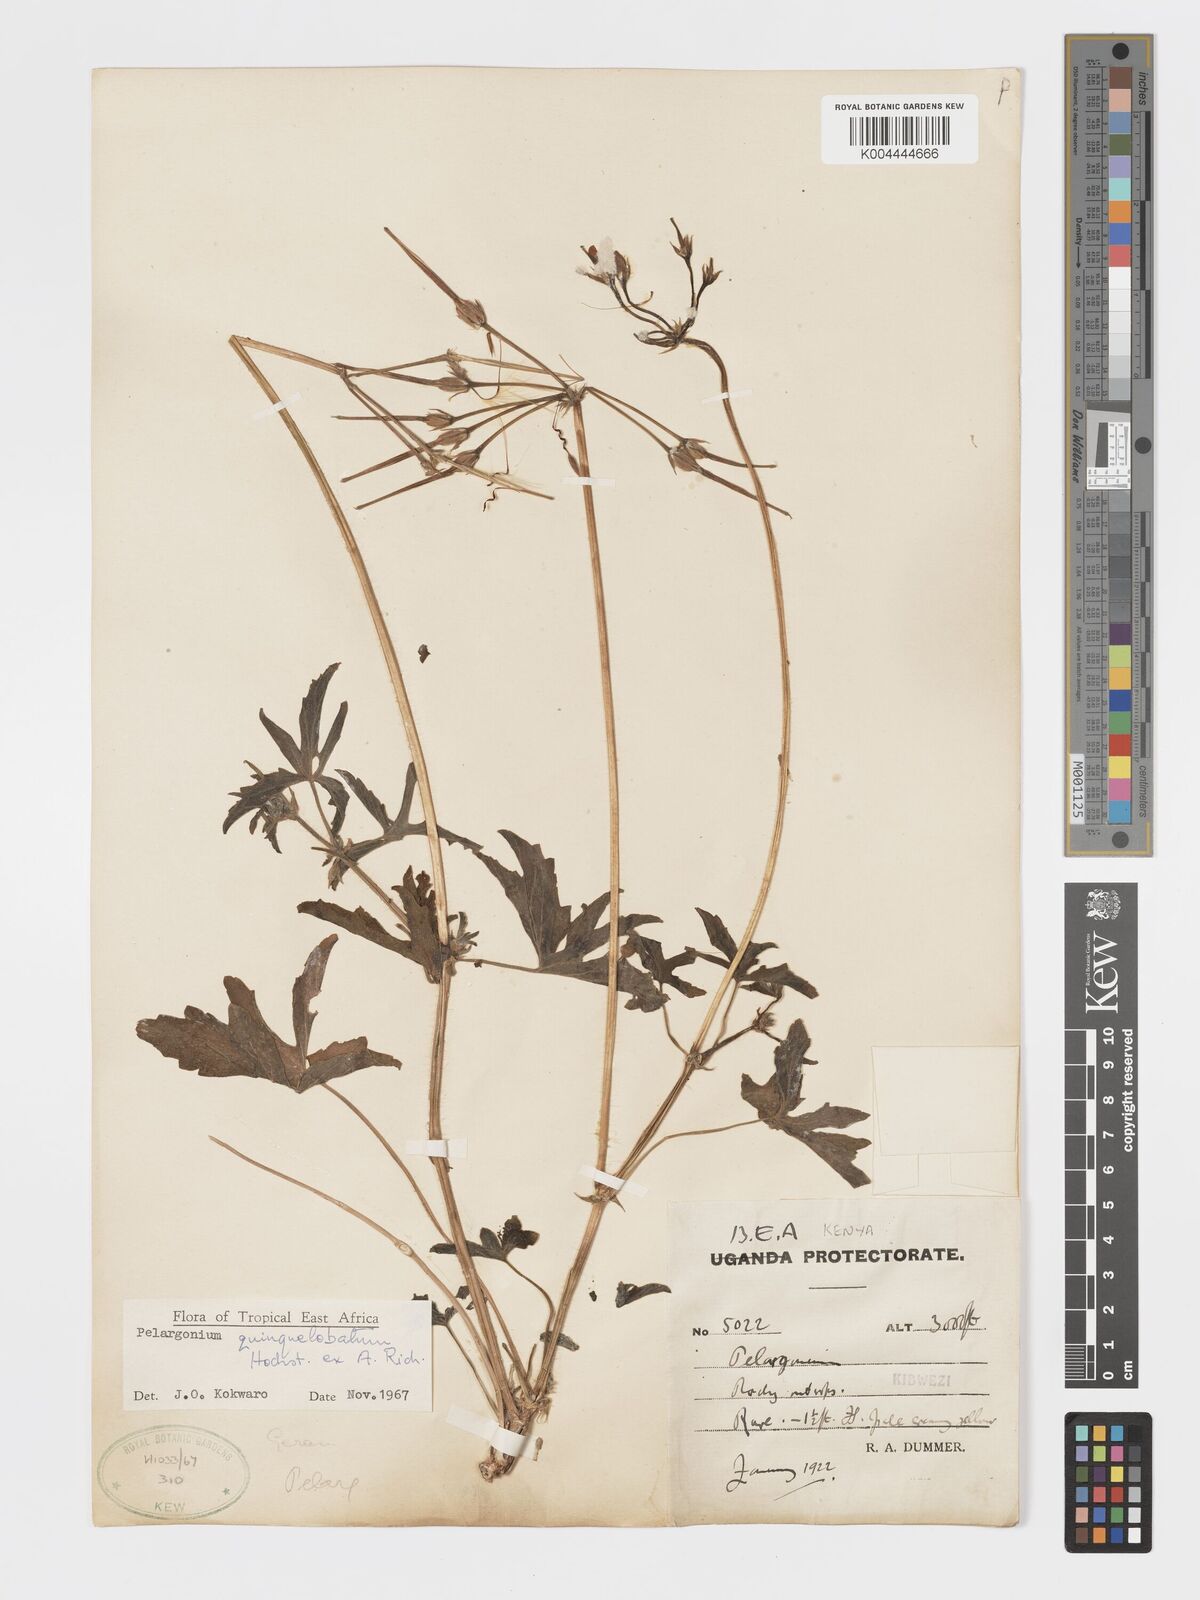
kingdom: Plantae
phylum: Tracheophyta
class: Magnoliopsida
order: Geraniales
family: Geraniaceae
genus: Pelargonium
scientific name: Pelargonium quinquelobatum
